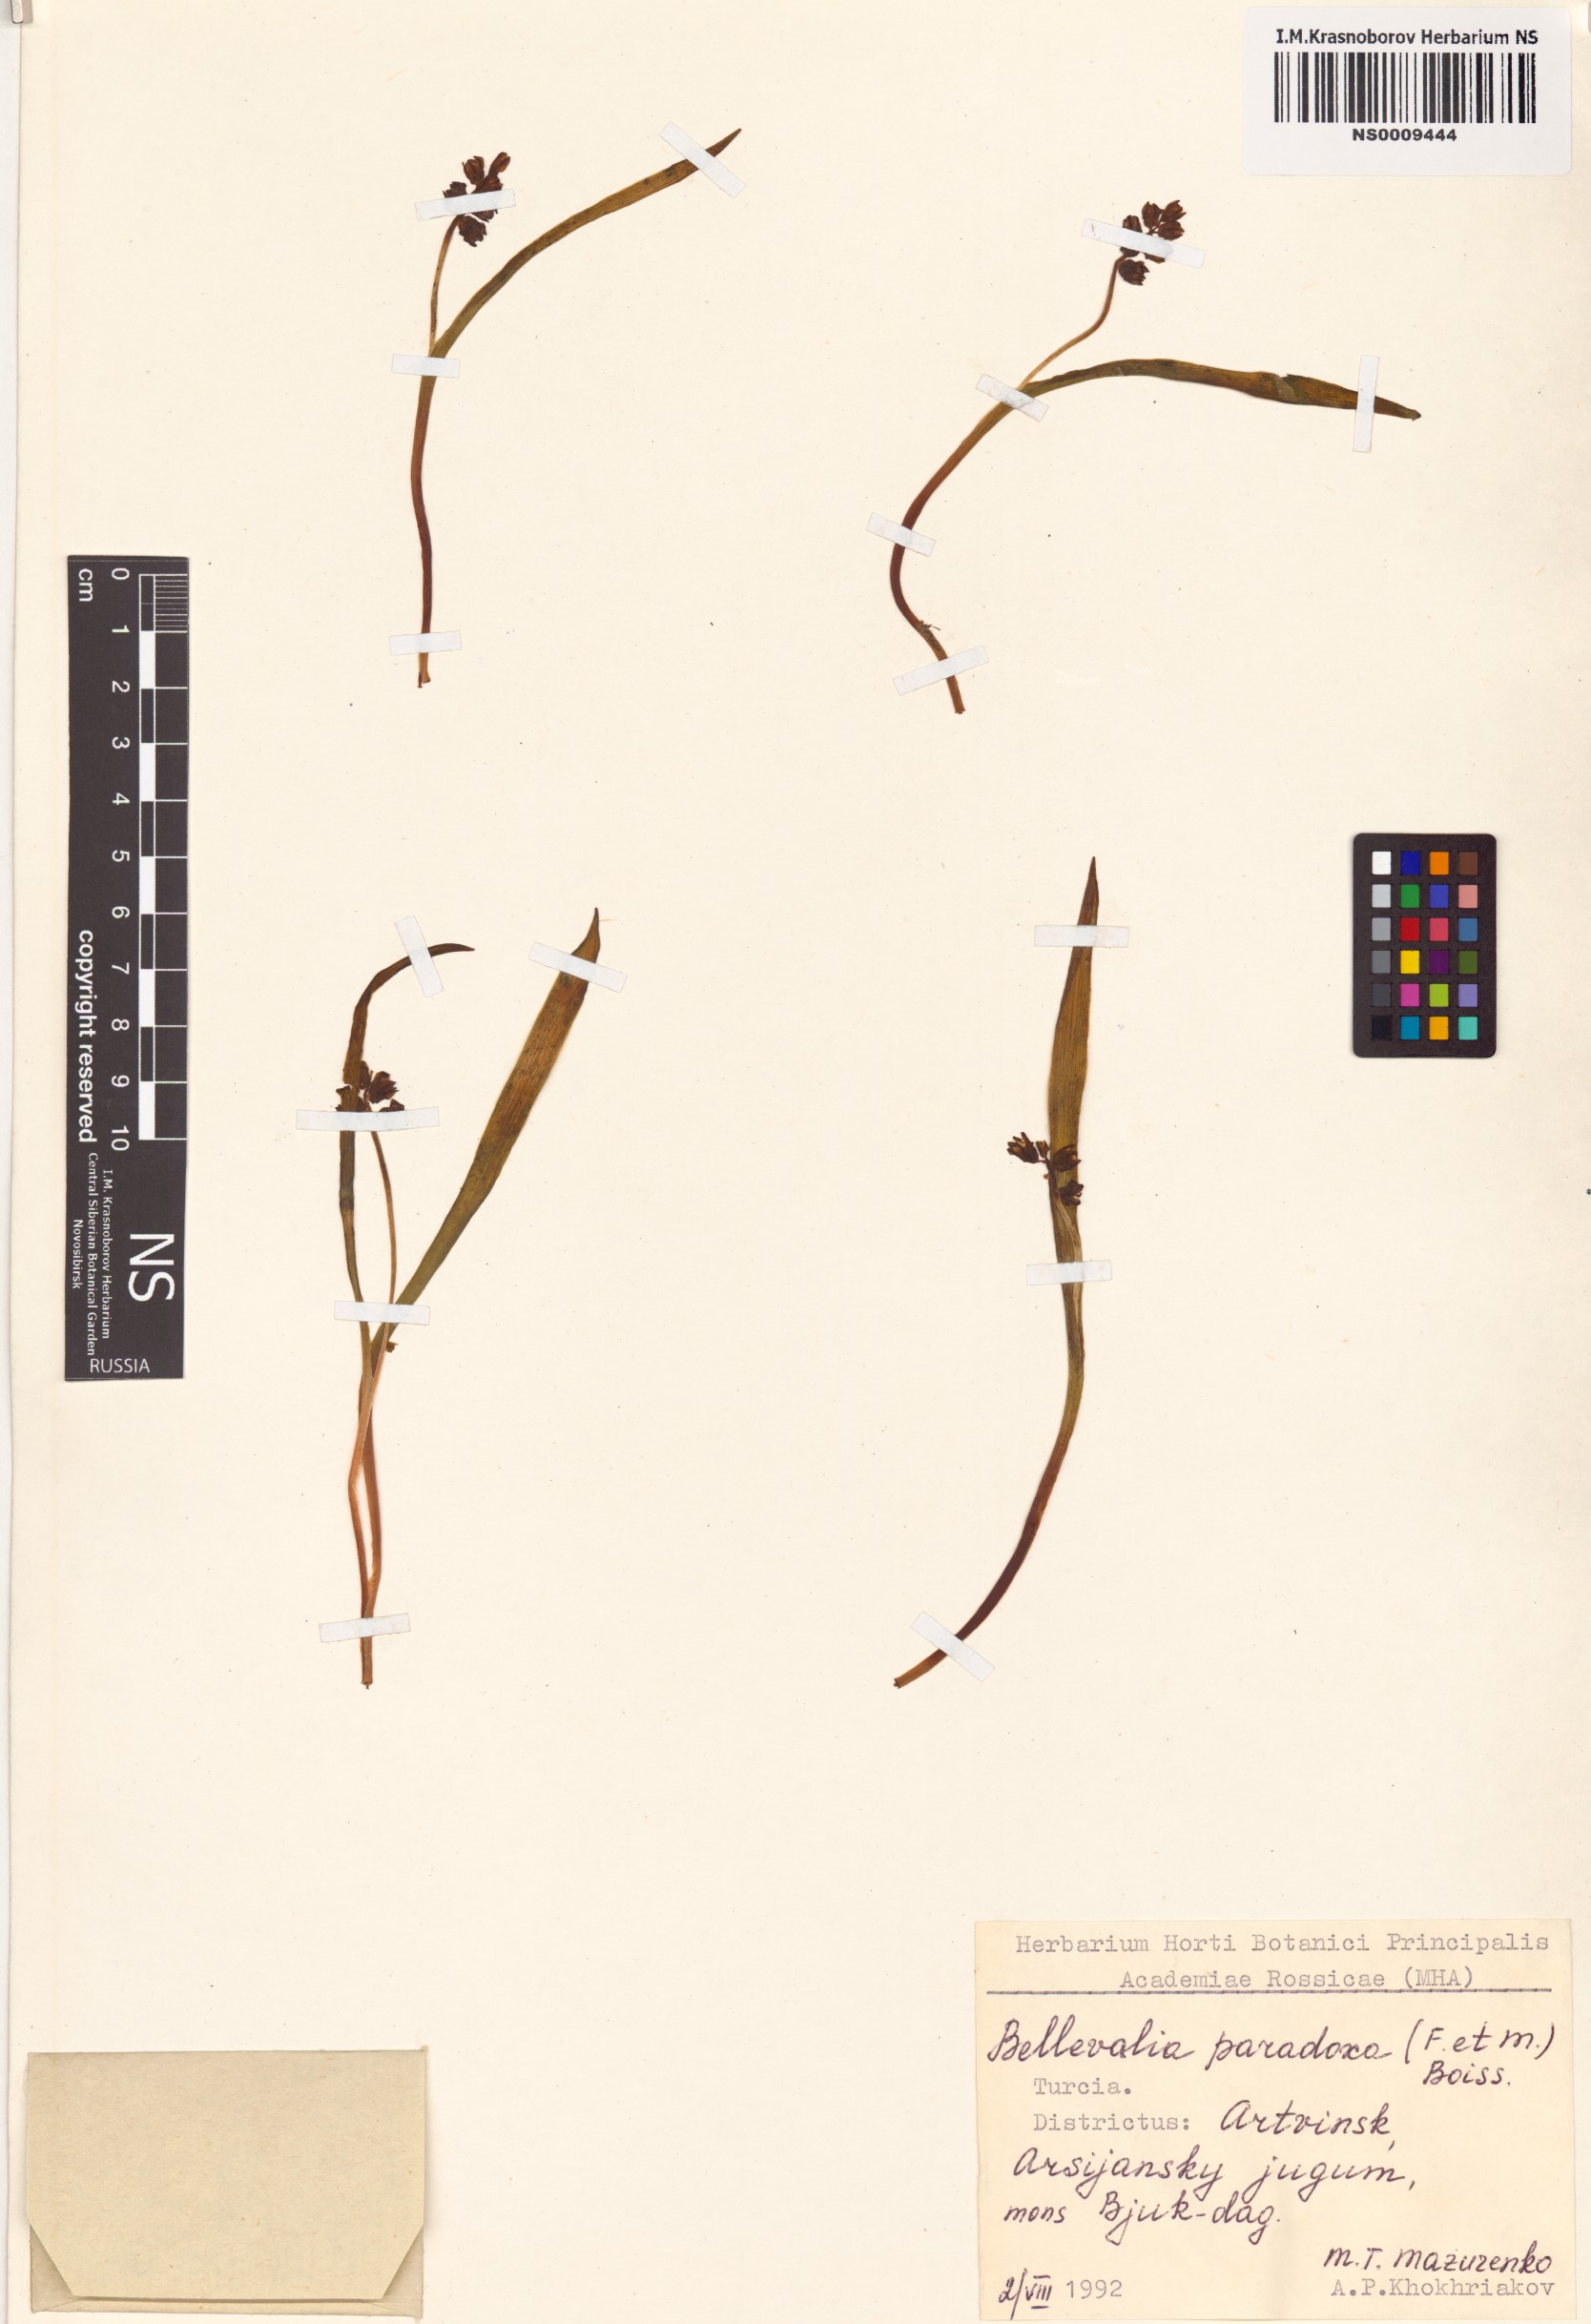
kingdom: Plantae
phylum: Tracheophyta
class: Liliopsida
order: Asparagales
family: Asparagaceae
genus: Bellevalia
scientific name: Bellevalia paradoxa
